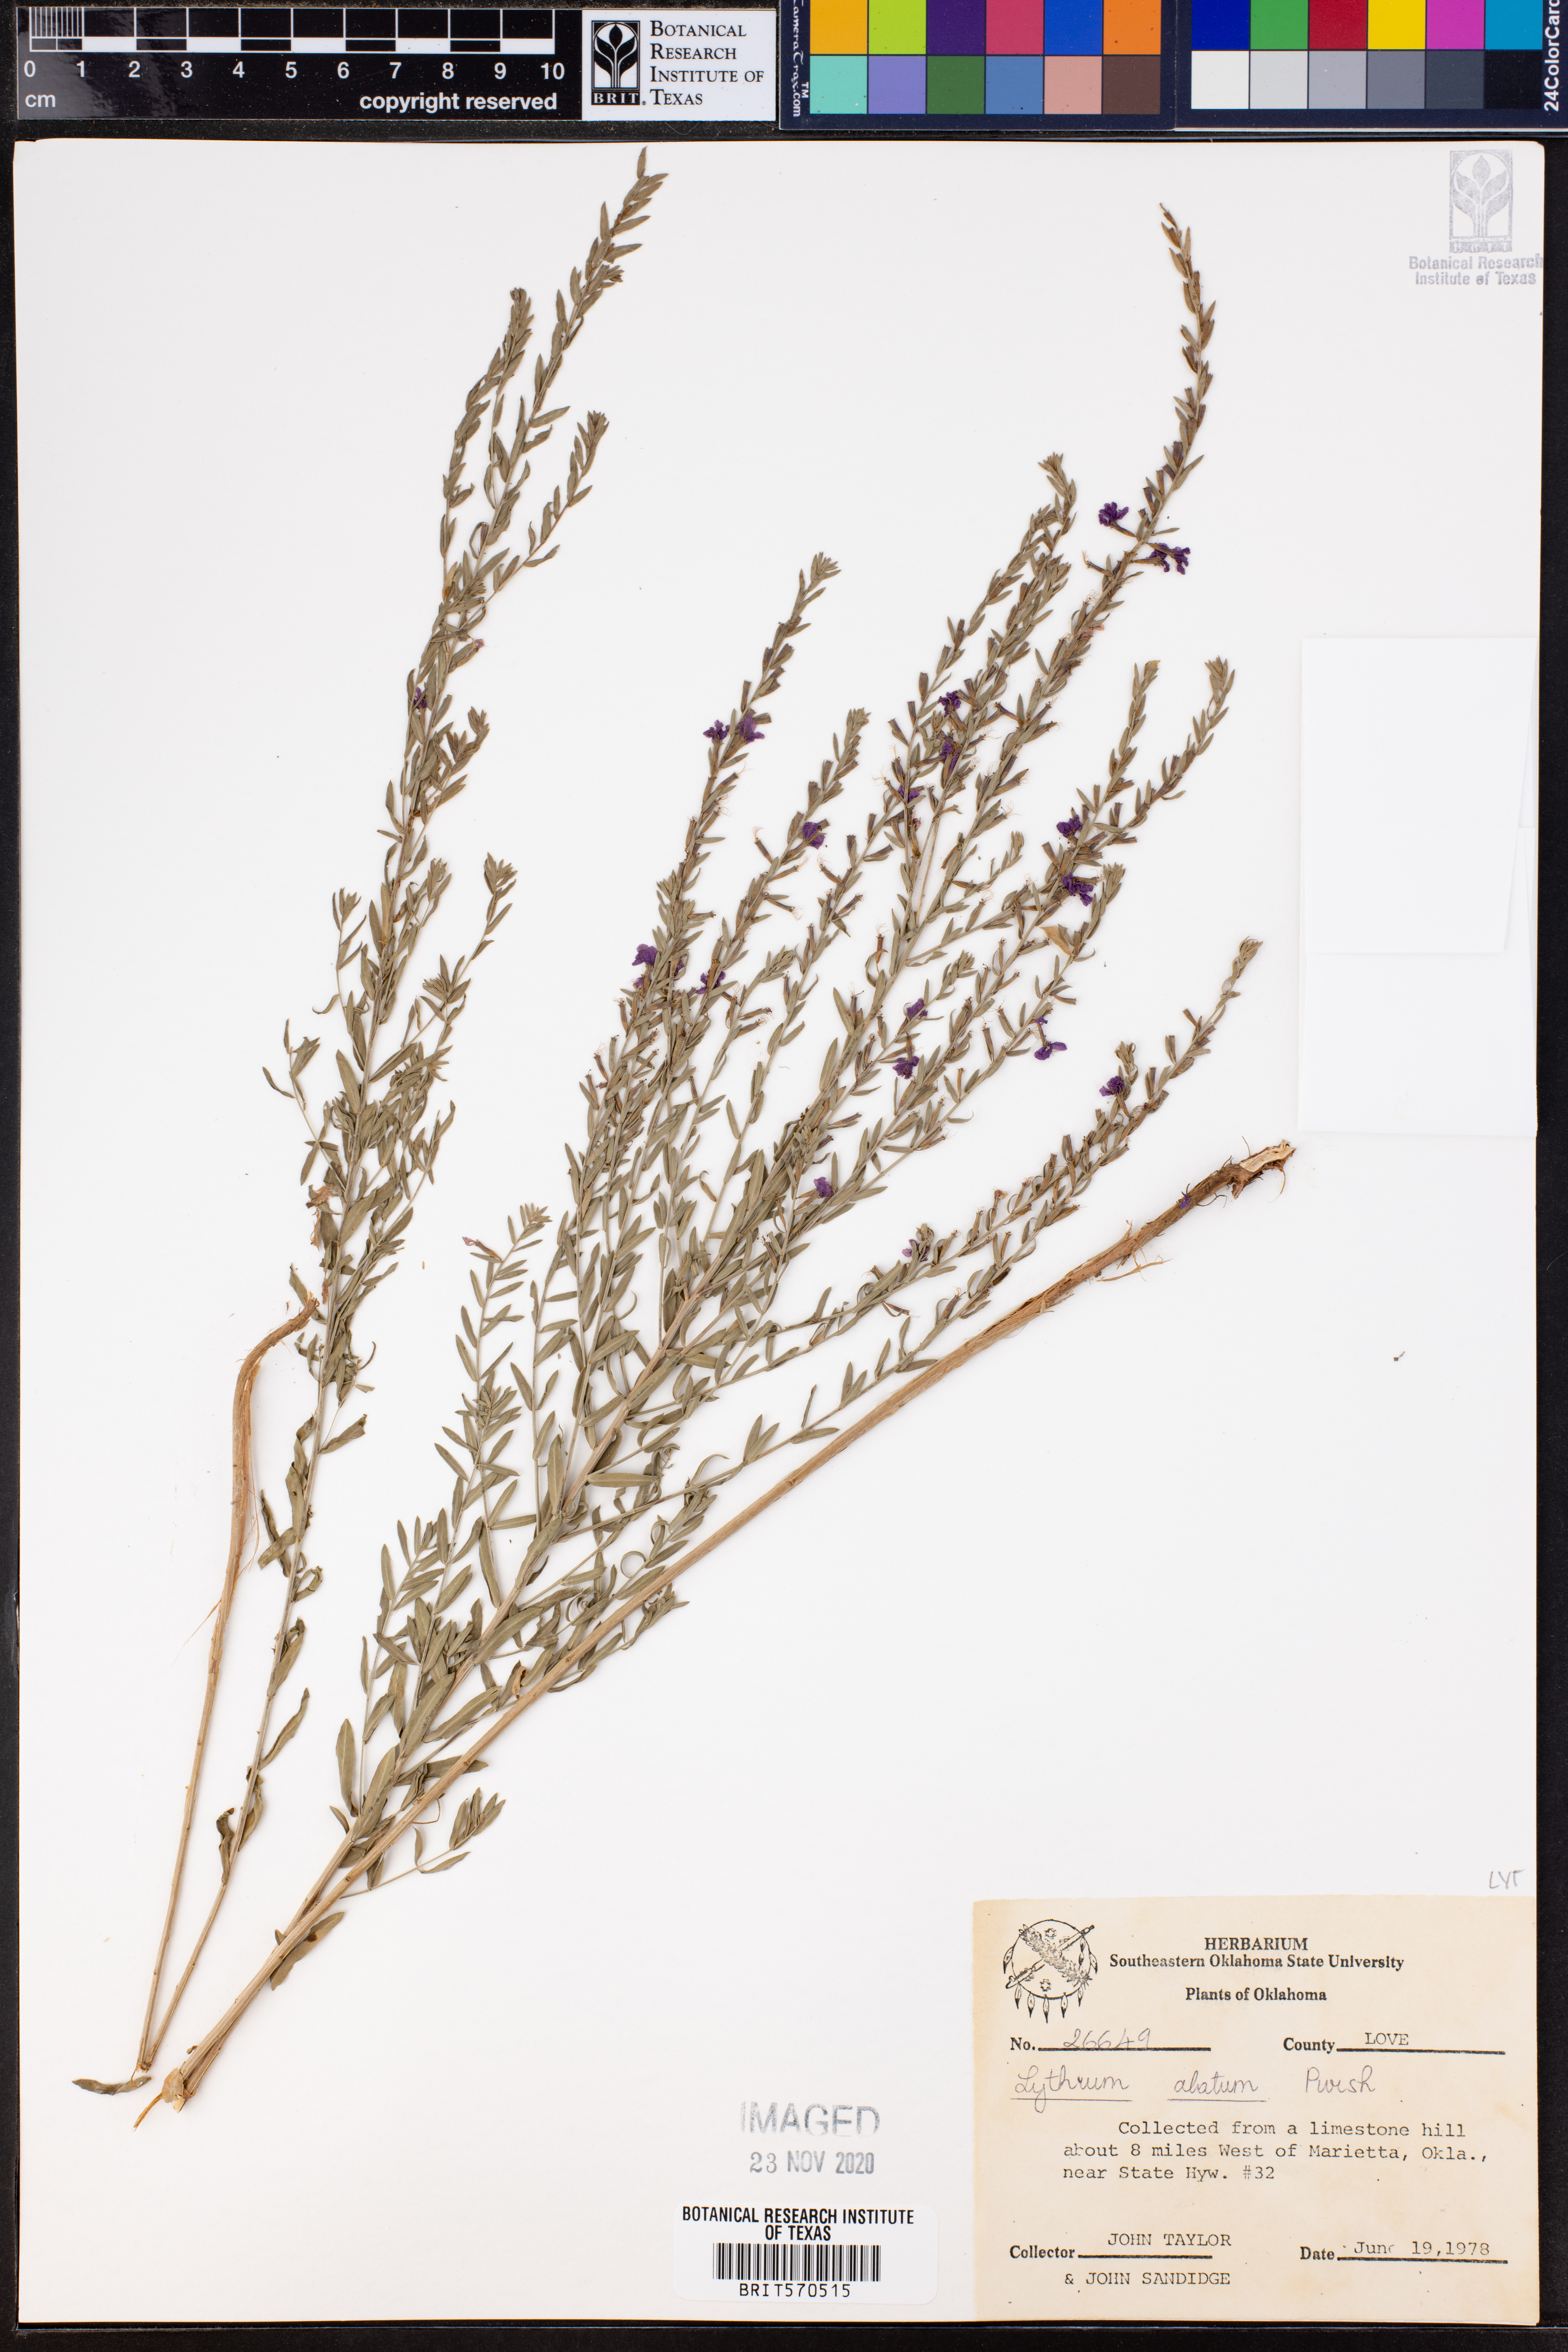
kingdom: Plantae
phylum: Tracheophyta
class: Magnoliopsida
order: Myrtales
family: Lythraceae
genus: Lythrum
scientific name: Lythrum alatum
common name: Winged loosestrife
